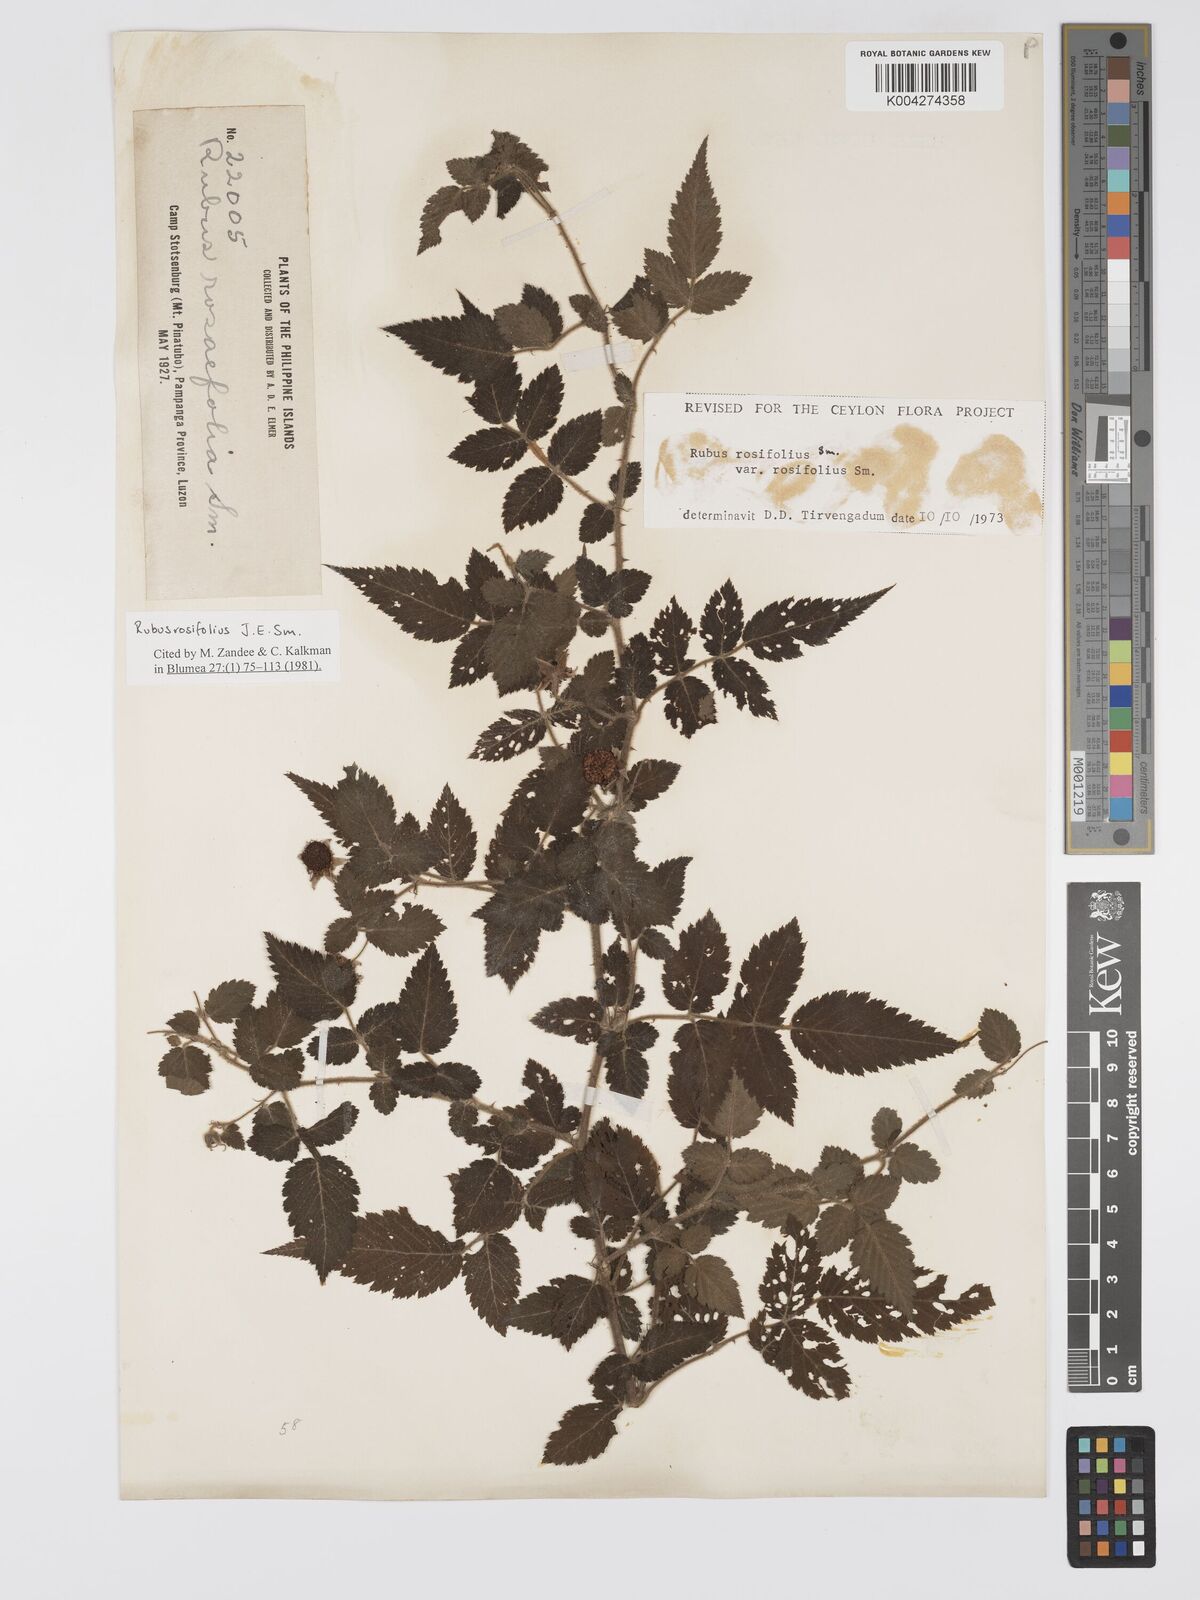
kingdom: Plantae
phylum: Tracheophyta
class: Magnoliopsida
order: Rosales
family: Rosaceae
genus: Rubus
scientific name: Rubus
